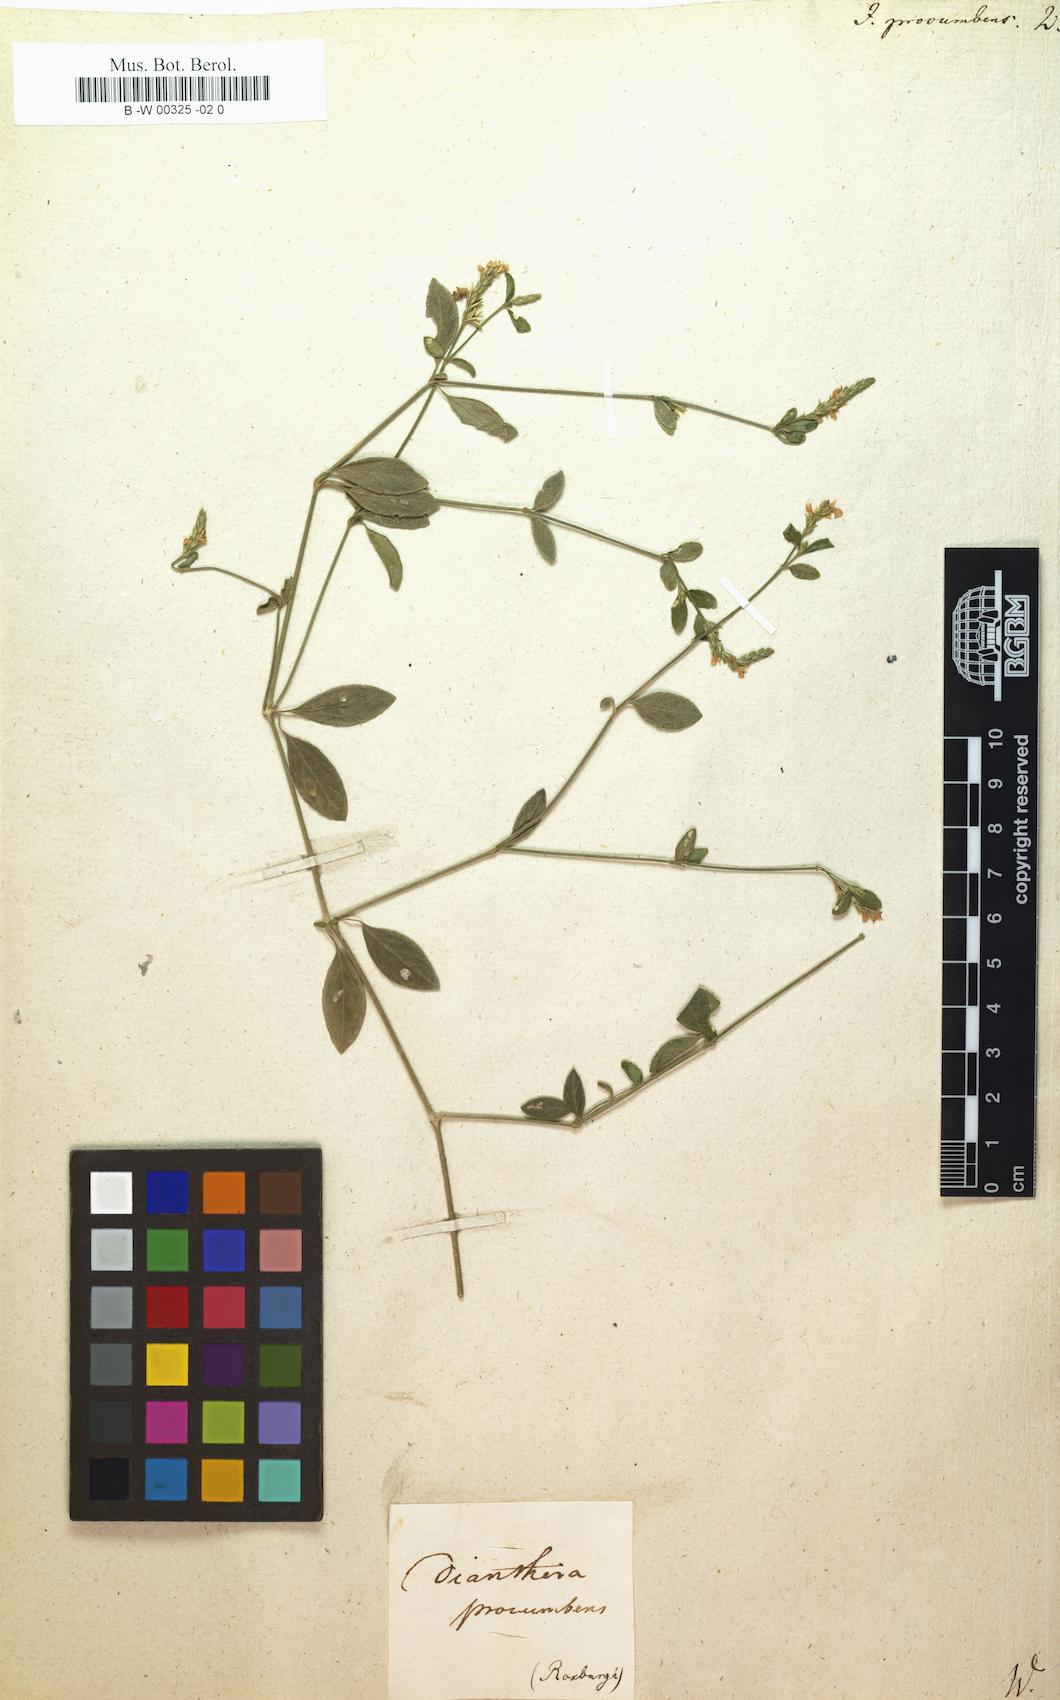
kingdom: Plantae
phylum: Tracheophyta
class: Magnoliopsida
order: Lamiales
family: Acanthaceae
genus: Rostellularia
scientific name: Rostellularia procumbens
